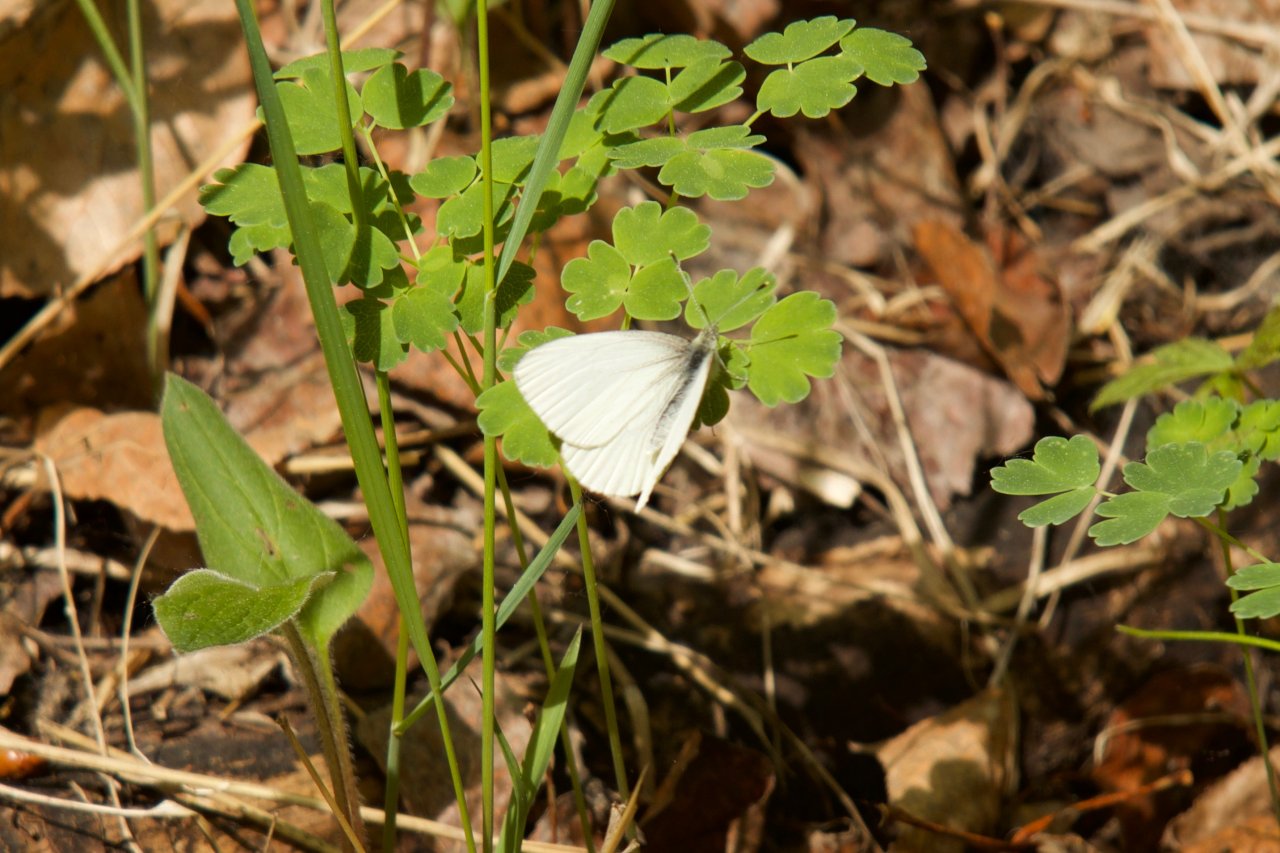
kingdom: Animalia
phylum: Arthropoda
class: Insecta
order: Lepidoptera
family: Pieridae
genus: Pieris
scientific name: Pieris oleracea
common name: Mustard White
